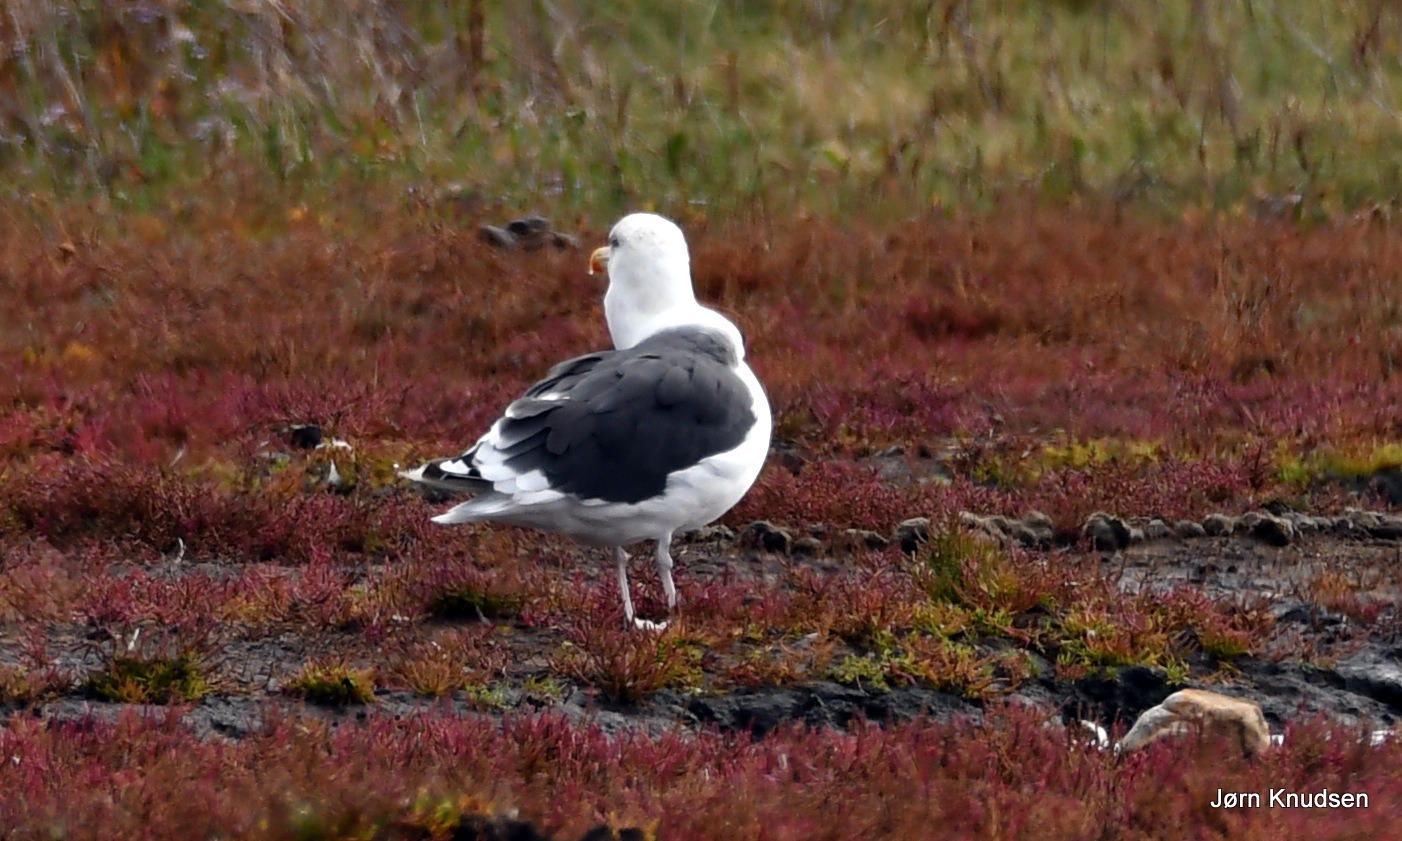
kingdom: Animalia
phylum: Chordata
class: Aves
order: Charadriiformes
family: Laridae
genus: Larus
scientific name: Larus marinus
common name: Svartbag
